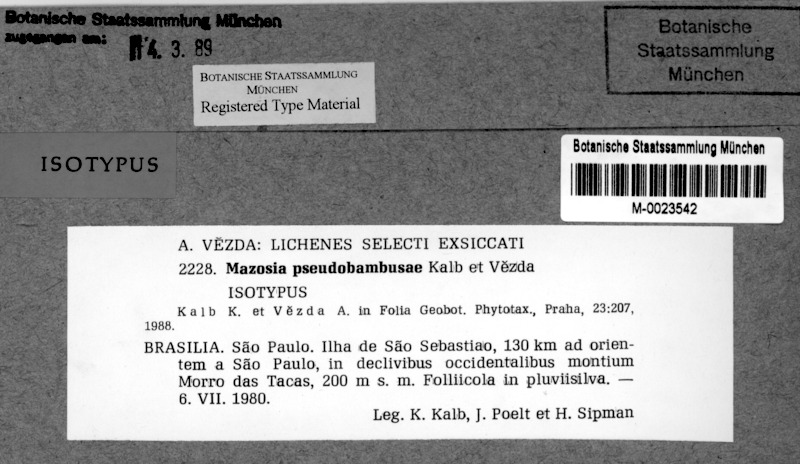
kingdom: Fungi
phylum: Ascomycota
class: Arthoniomycetes
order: Arthoniales
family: Roccellaceae
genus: Mazosia
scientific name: Mazosia pseudobambusae
